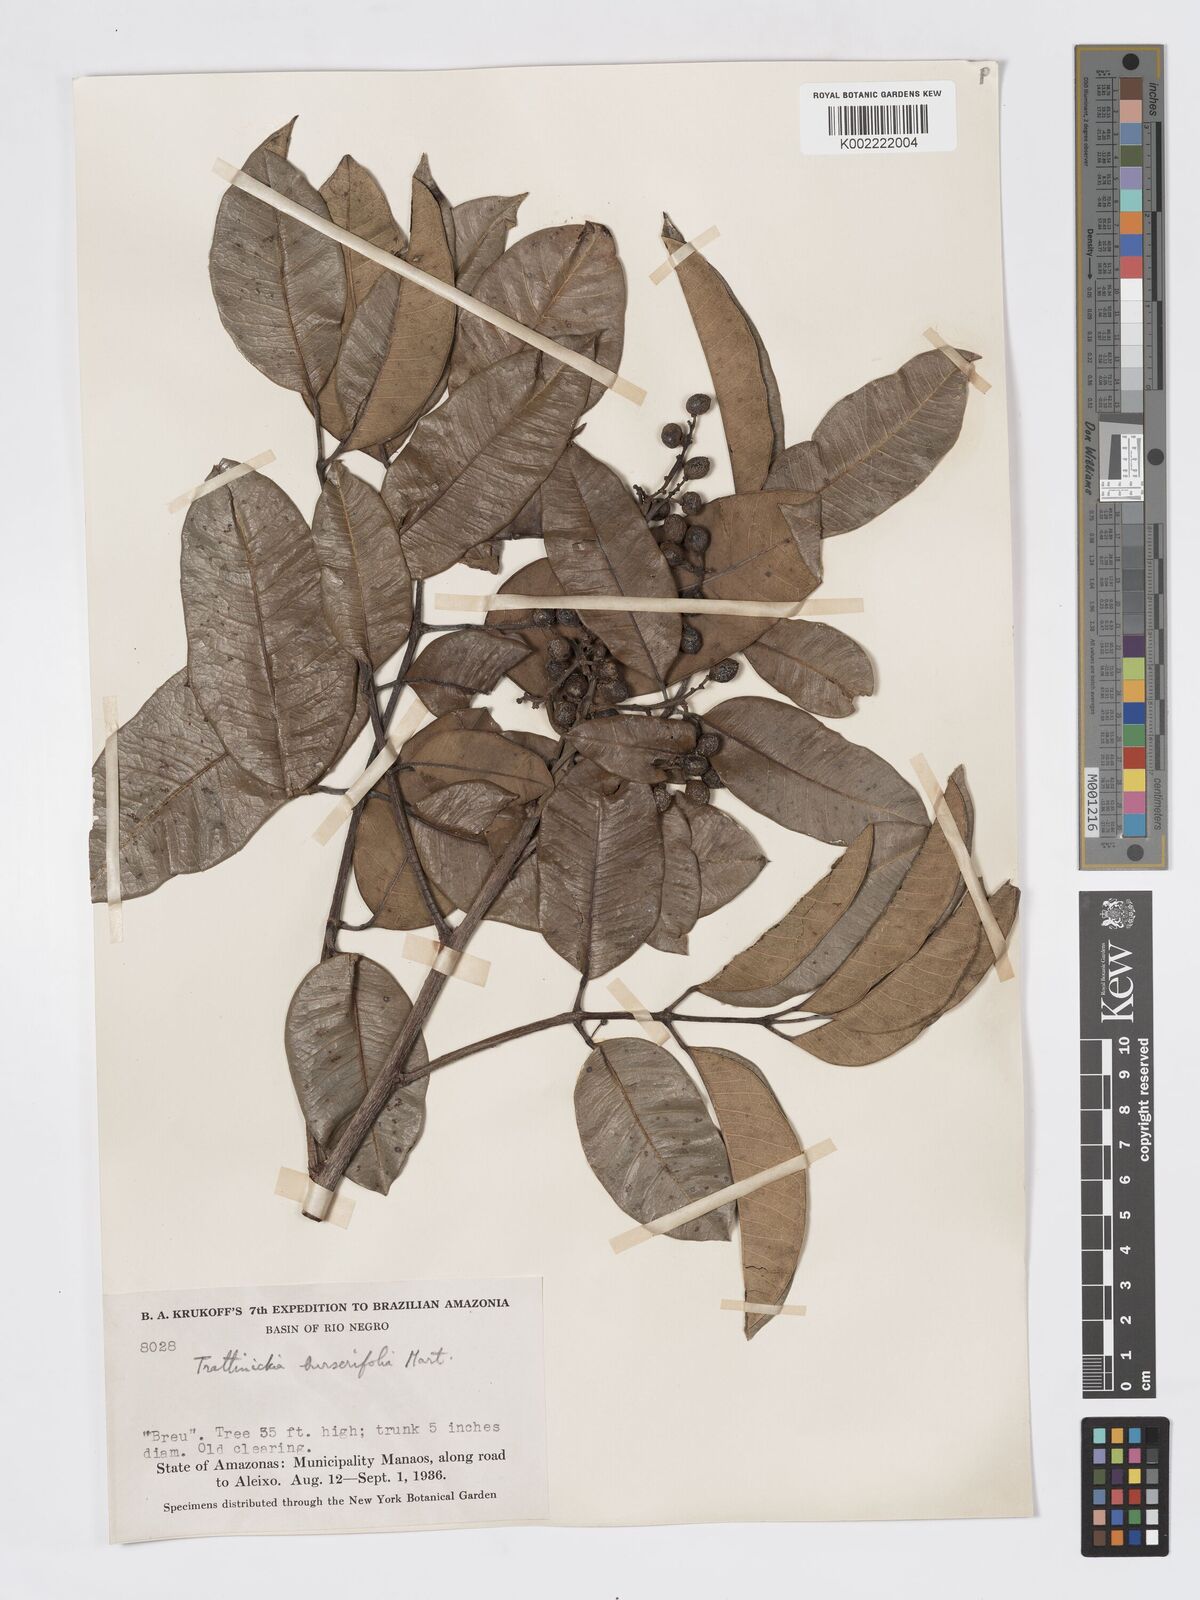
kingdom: Plantae
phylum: Tracheophyta
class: Magnoliopsida
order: Sapindales
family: Burseraceae
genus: Trattinnickia
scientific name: Trattinnickia burserifolia
